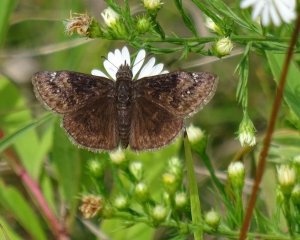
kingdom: Animalia
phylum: Arthropoda
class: Insecta
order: Lepidoptera
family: Hesperiidae
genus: Gesta
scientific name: Gesta
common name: Wild Indigo Duskywing
